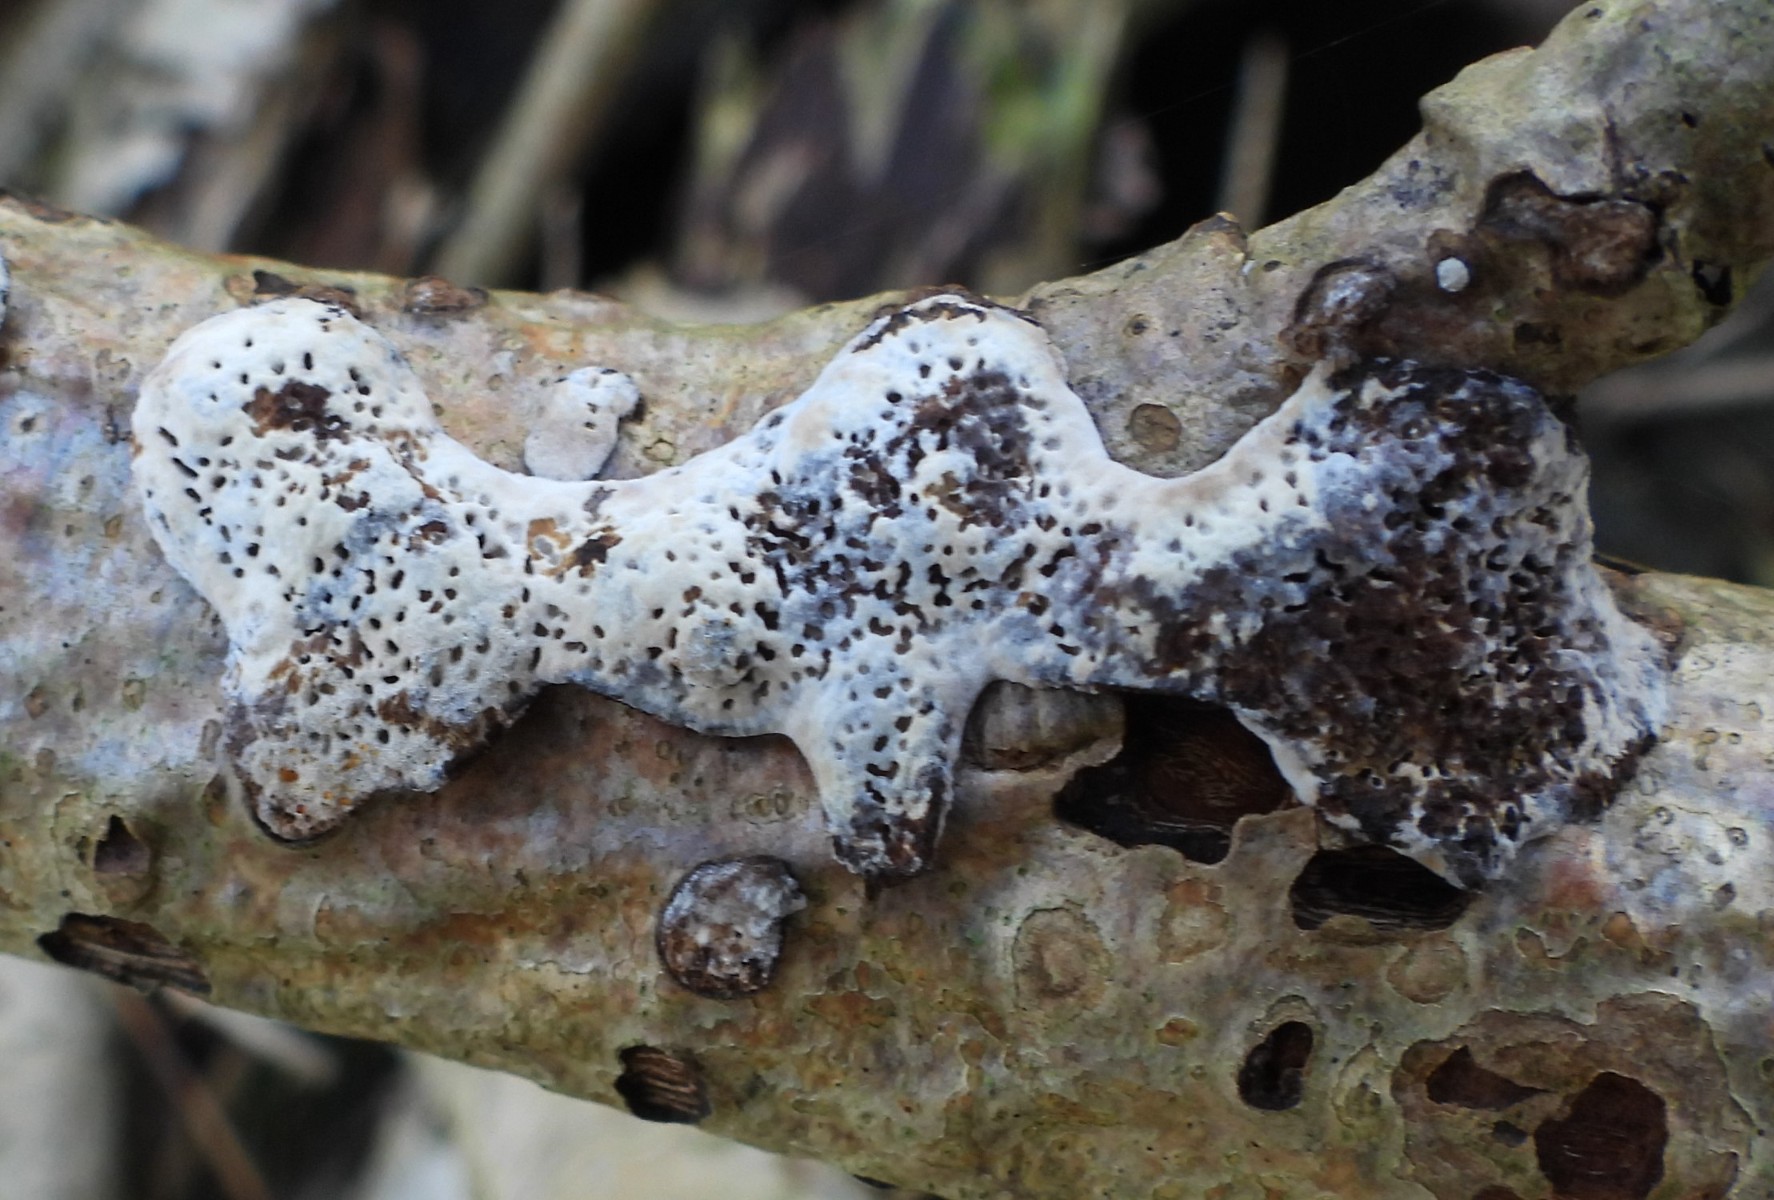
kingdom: Fungi
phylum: Basidiomycota
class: Agaricomycetes
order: Polyporales
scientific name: Polyporales
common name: poresvampordenen
